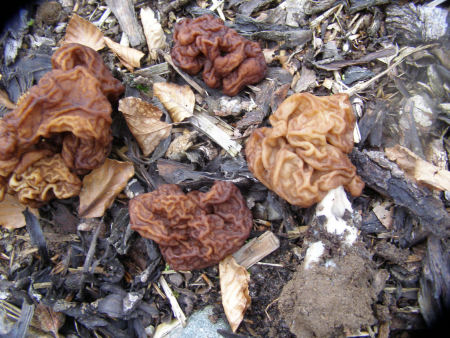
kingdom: Fungi
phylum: Ascomycota
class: Pezizomycetes
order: Pezizales
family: Discinaceae
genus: Gyromitra
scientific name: Gyromitra esculenta
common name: ægte stenmorkel
